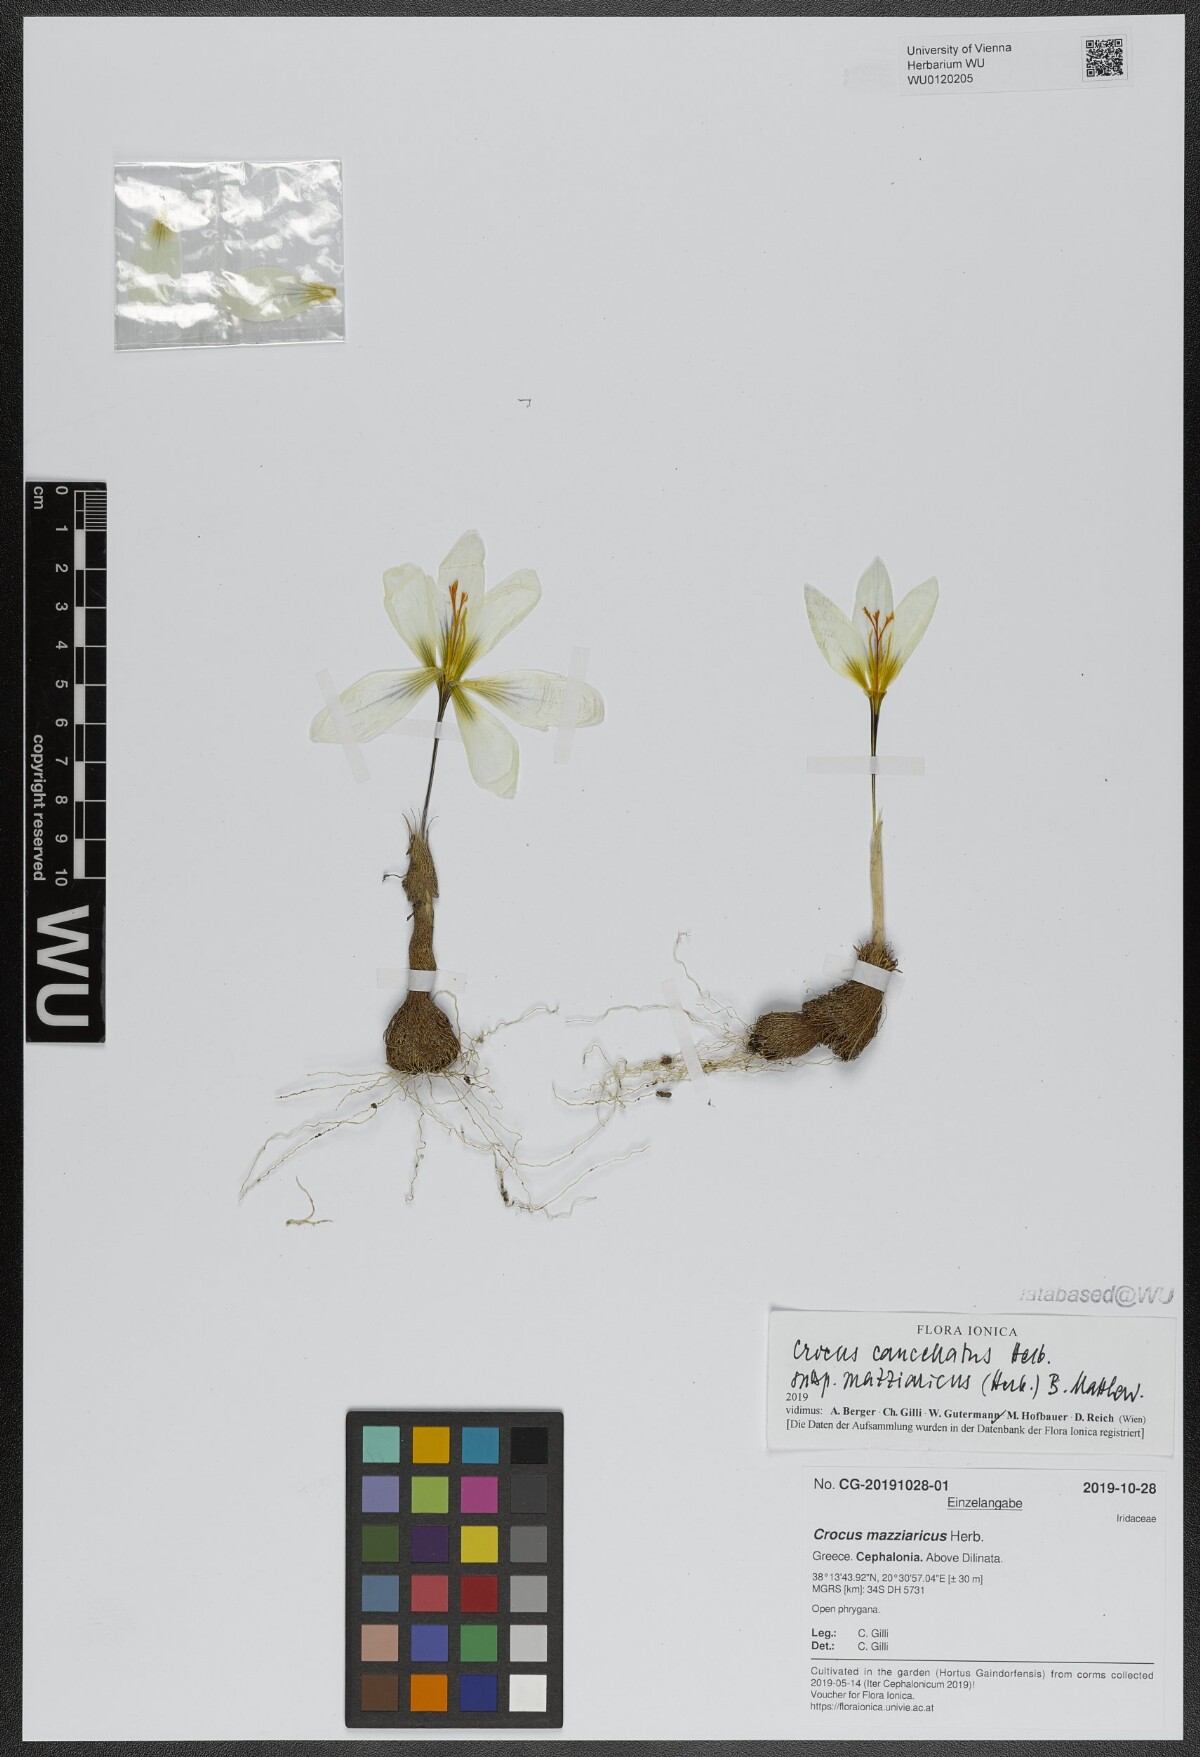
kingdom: Plantae
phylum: Tracheophyta
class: Liliopsida
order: Asparagales
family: Iridaceae
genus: Crocus
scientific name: Crocus mazziaricus
